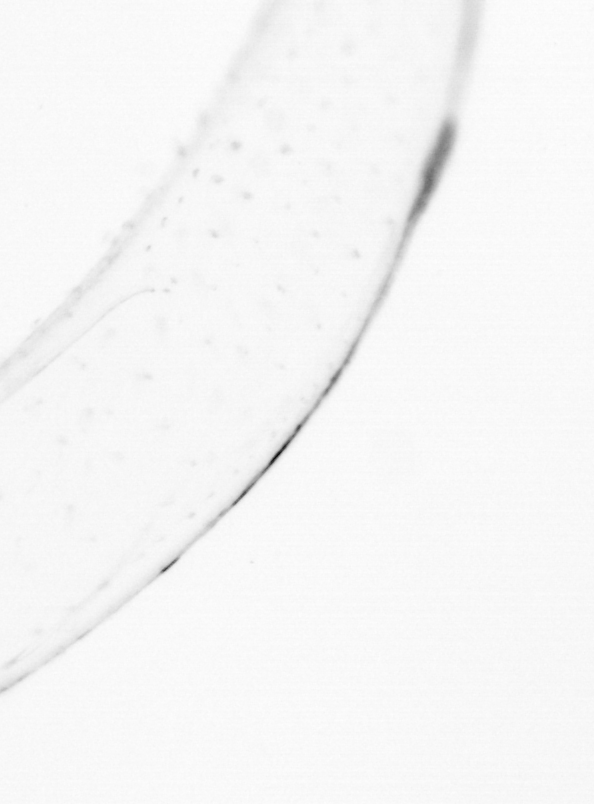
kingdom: Animalia
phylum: Chaetognatha
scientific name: Chaetognatha
